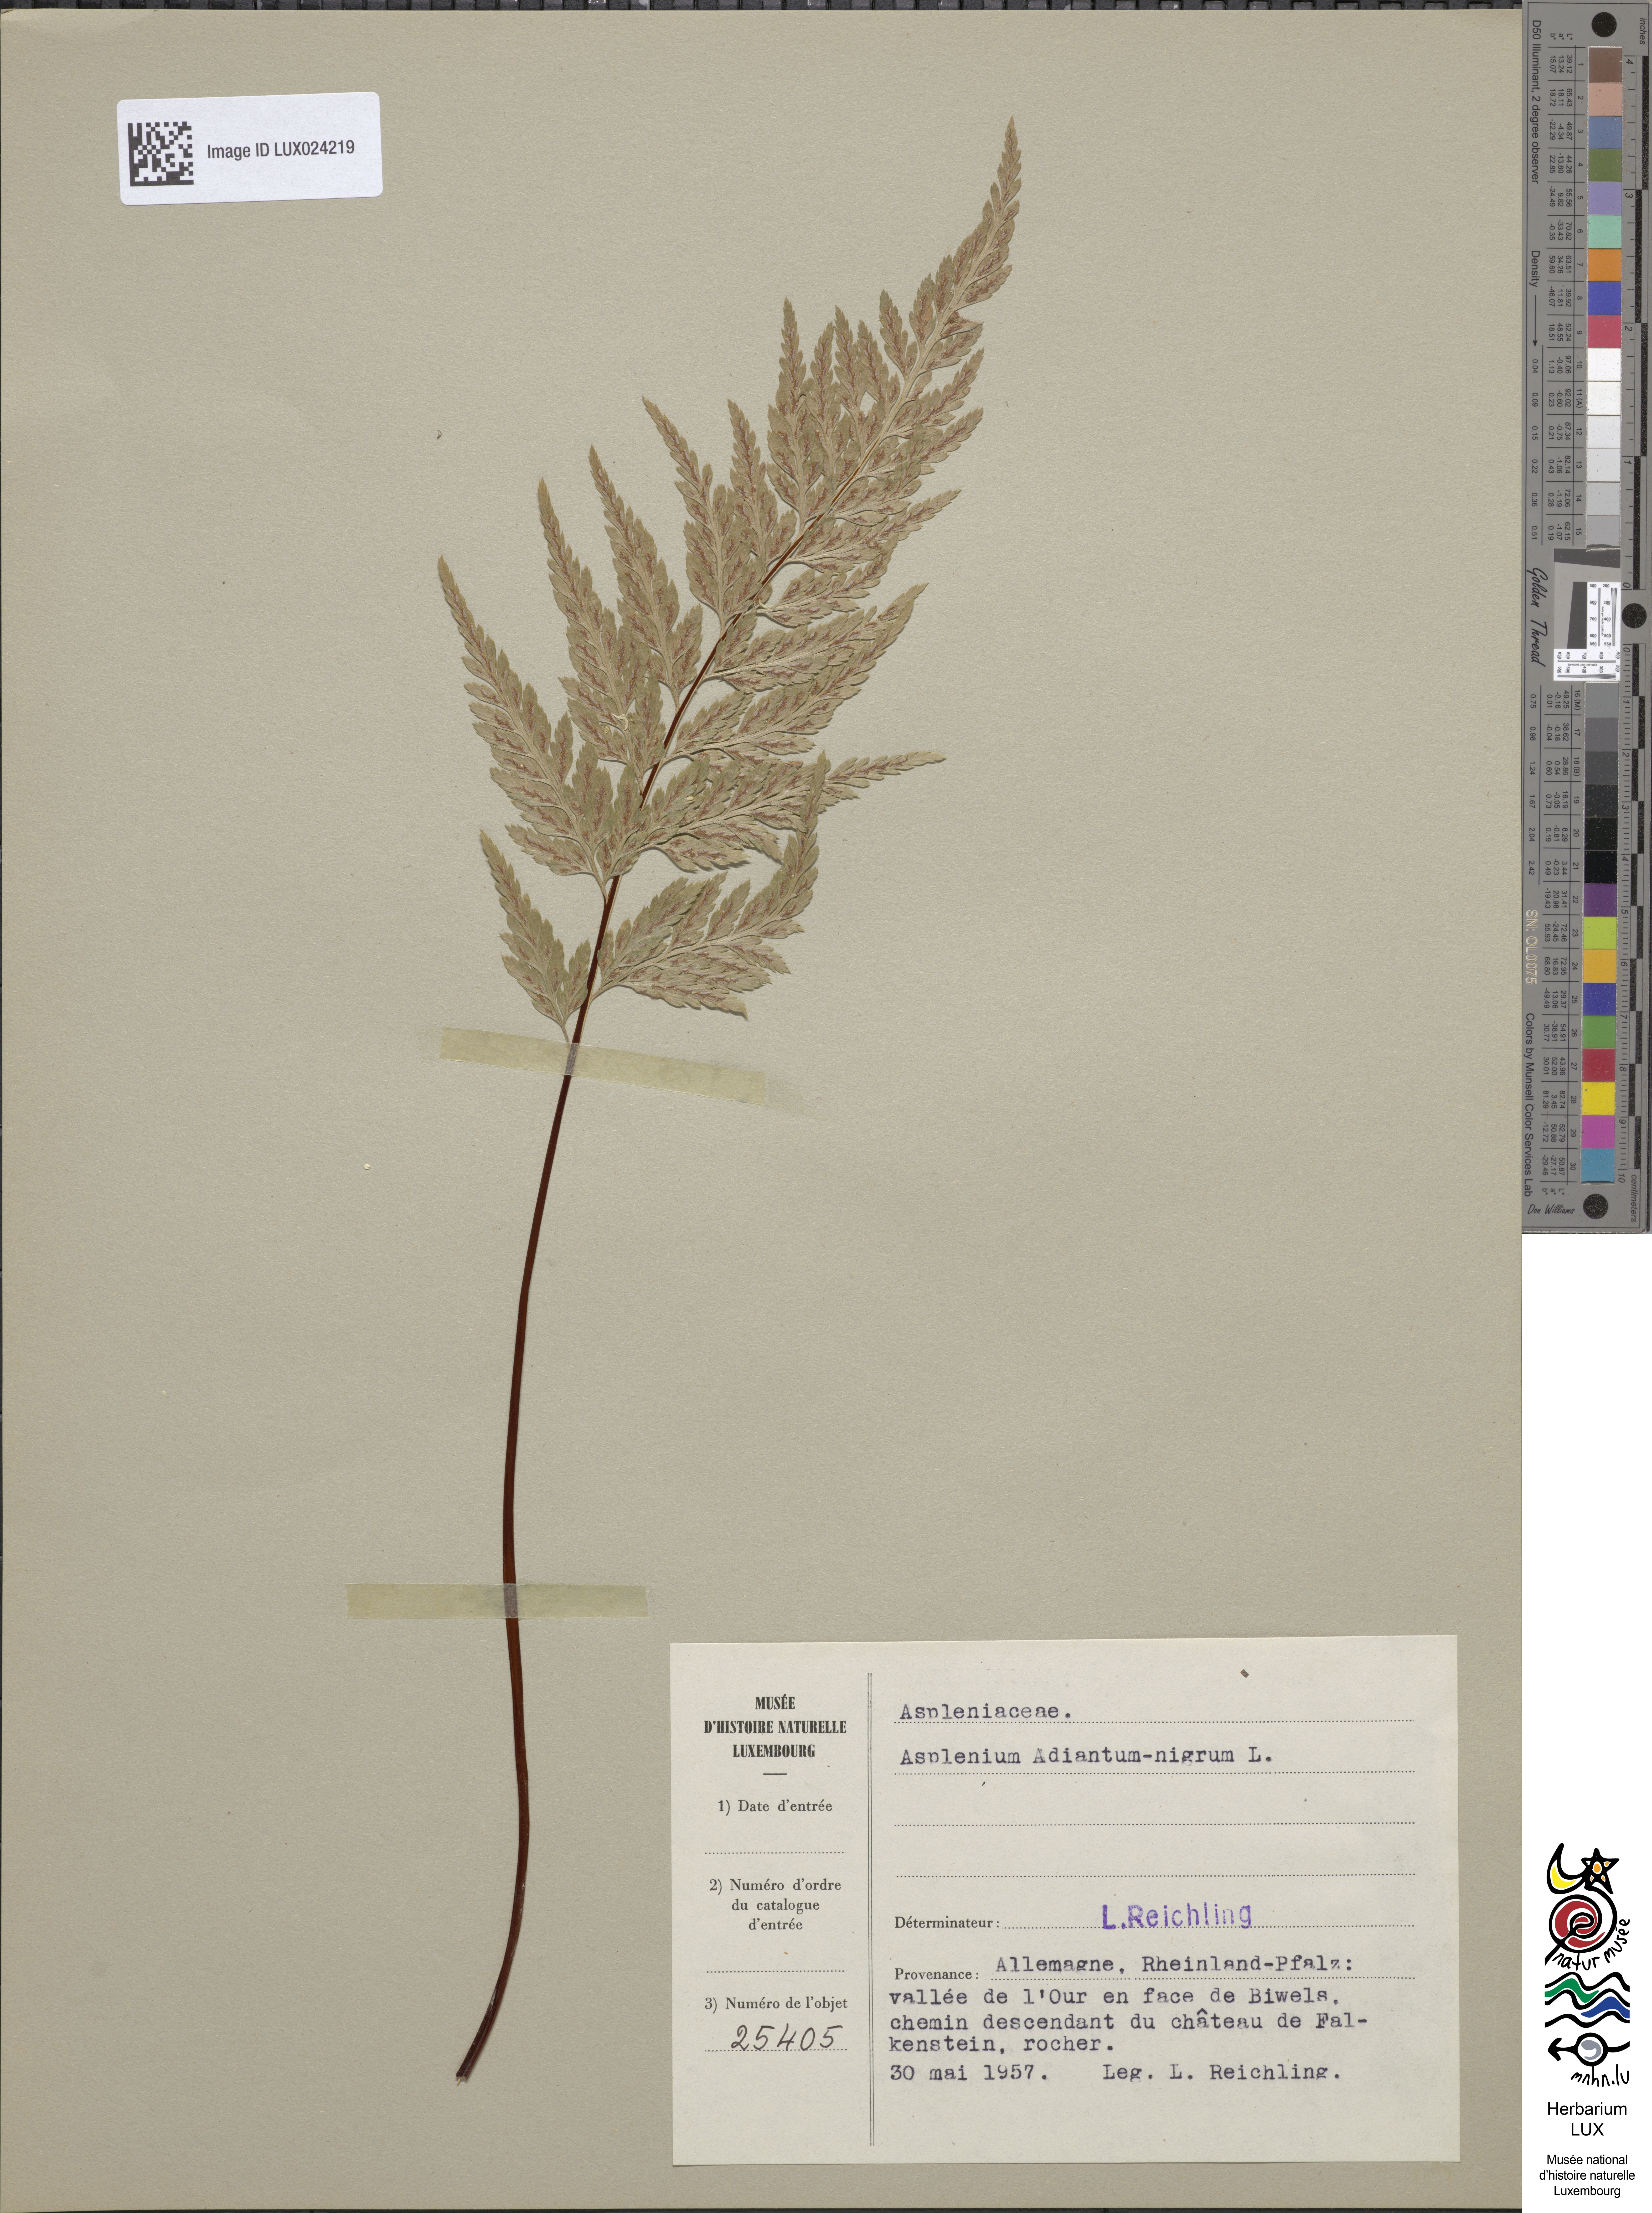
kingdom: Plantae
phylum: Tracheophyta
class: Polypodiopsida
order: Polypodiales
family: Aspleniaceae
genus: Asplenium
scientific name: Asplenium adiantum-nigrum
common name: Black spleenwort
